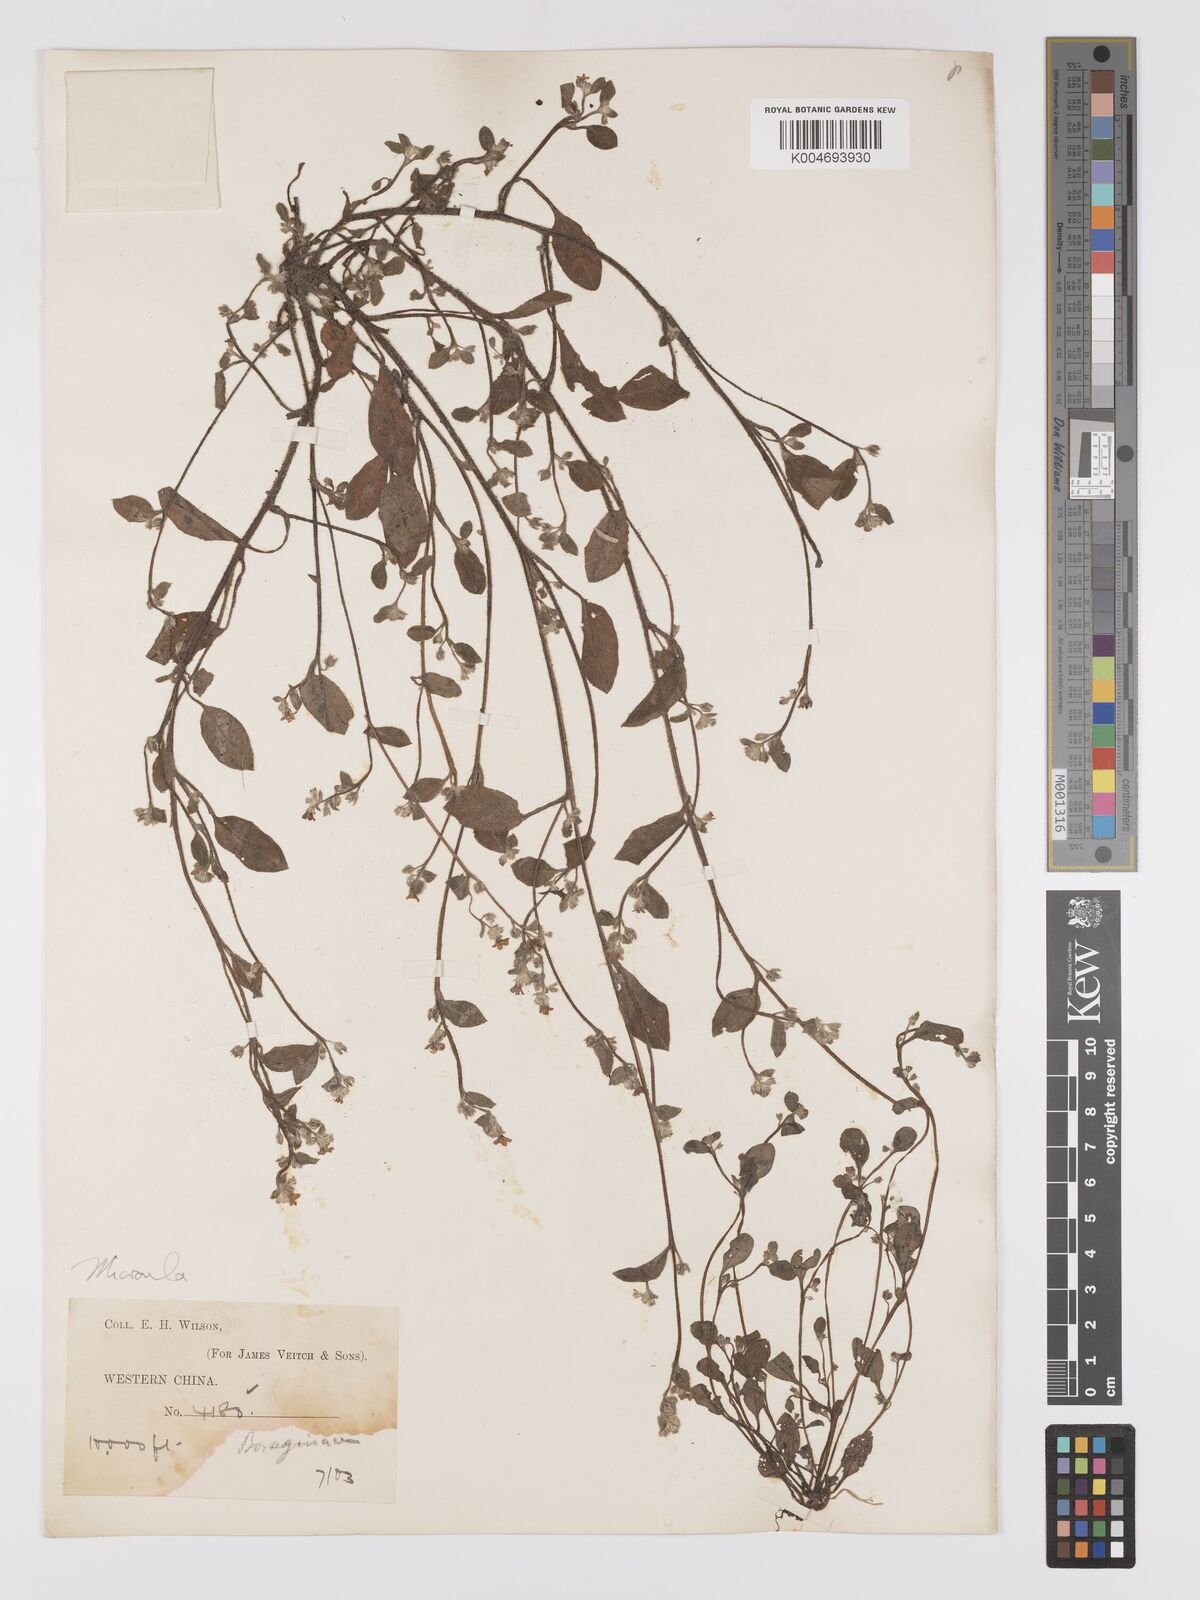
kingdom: Plantae
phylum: Tracheophyta
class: Magnoliopsida
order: Boraginales
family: Boraginaceae
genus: Microula
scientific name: Microula
